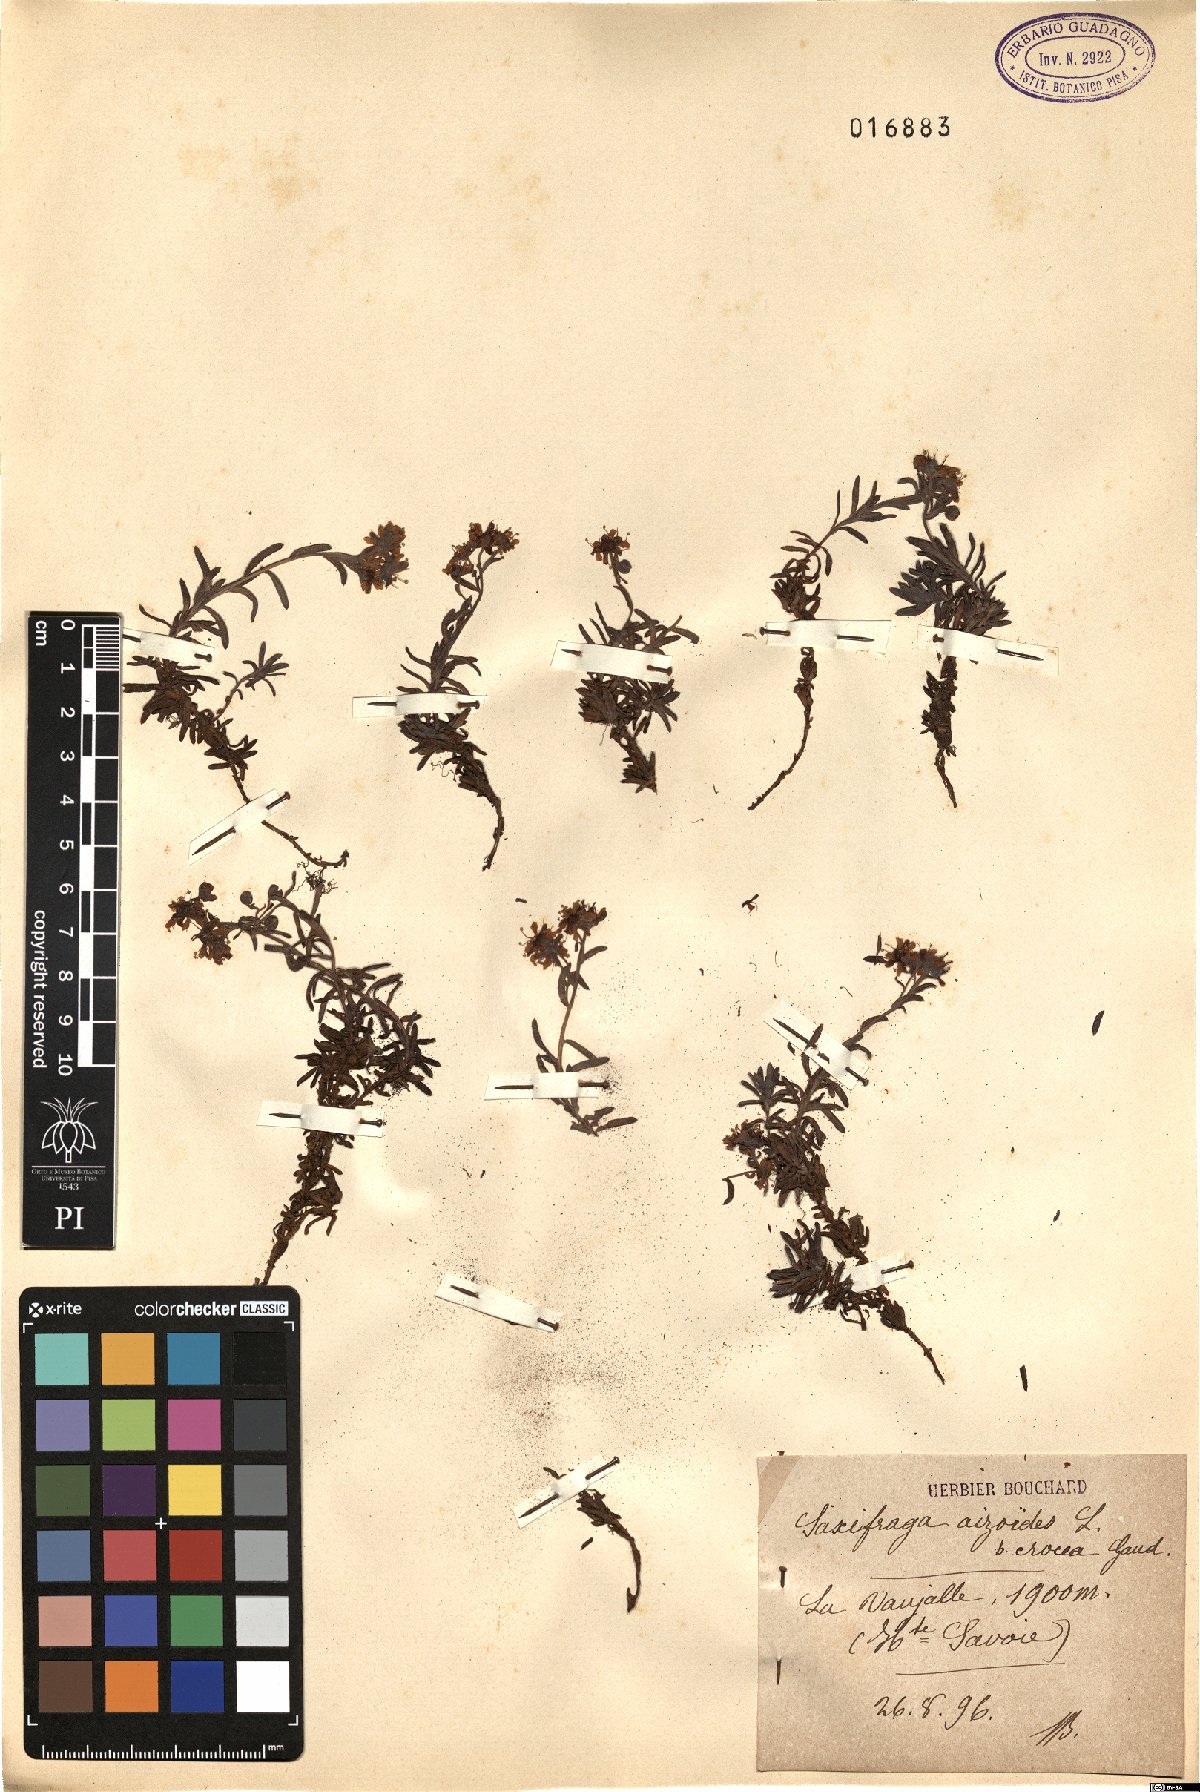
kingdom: Plantae
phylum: Tracheophyta
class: Magnoliopsida
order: Saxifragales
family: Saxifragaceae
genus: Saxifraga
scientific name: Saxifraga aizoides
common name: Yellow mountain saxifrage
